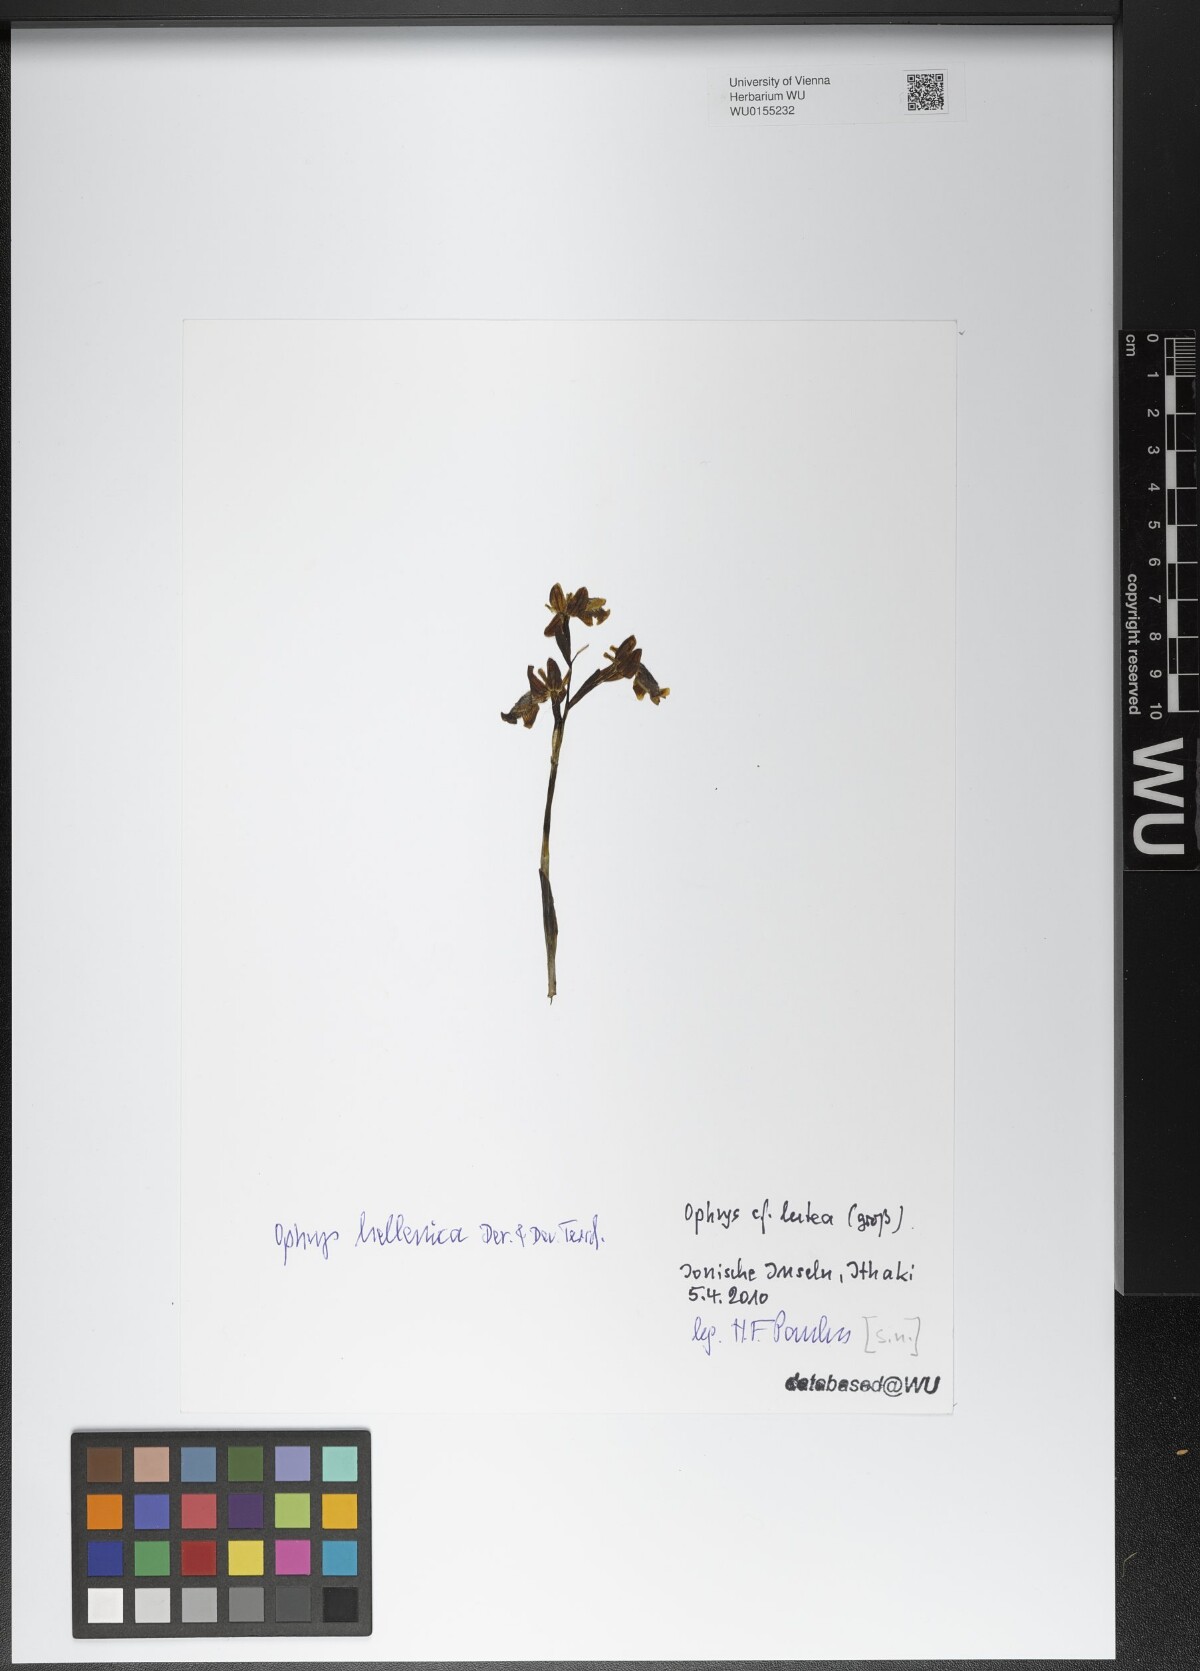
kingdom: Plantae
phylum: Tracheophyta
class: Liliopsida
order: Asparagales
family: Orchidaceae
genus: Ophrys
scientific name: Ophrys lutea
